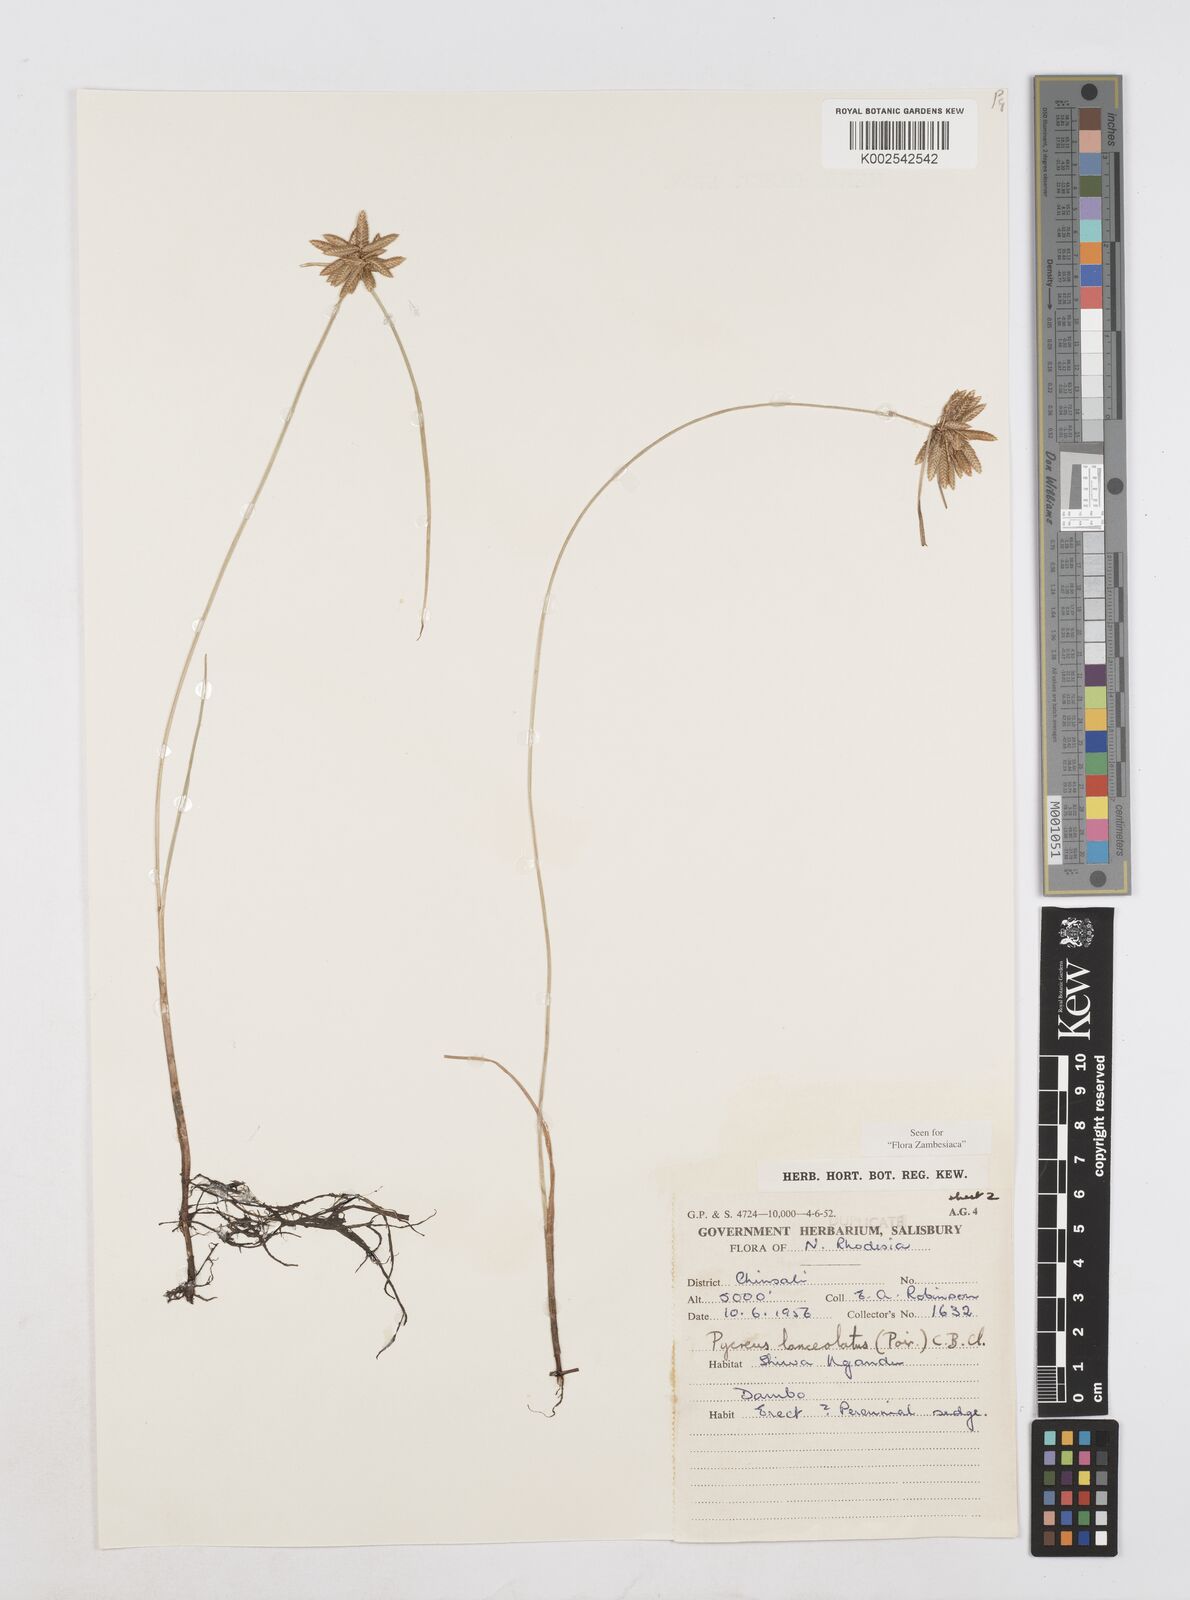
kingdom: Plantae
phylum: Tracheophyta
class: Liliopsida
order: Poales
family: Cyperaceae
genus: Cyperus
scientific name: Cyperus
